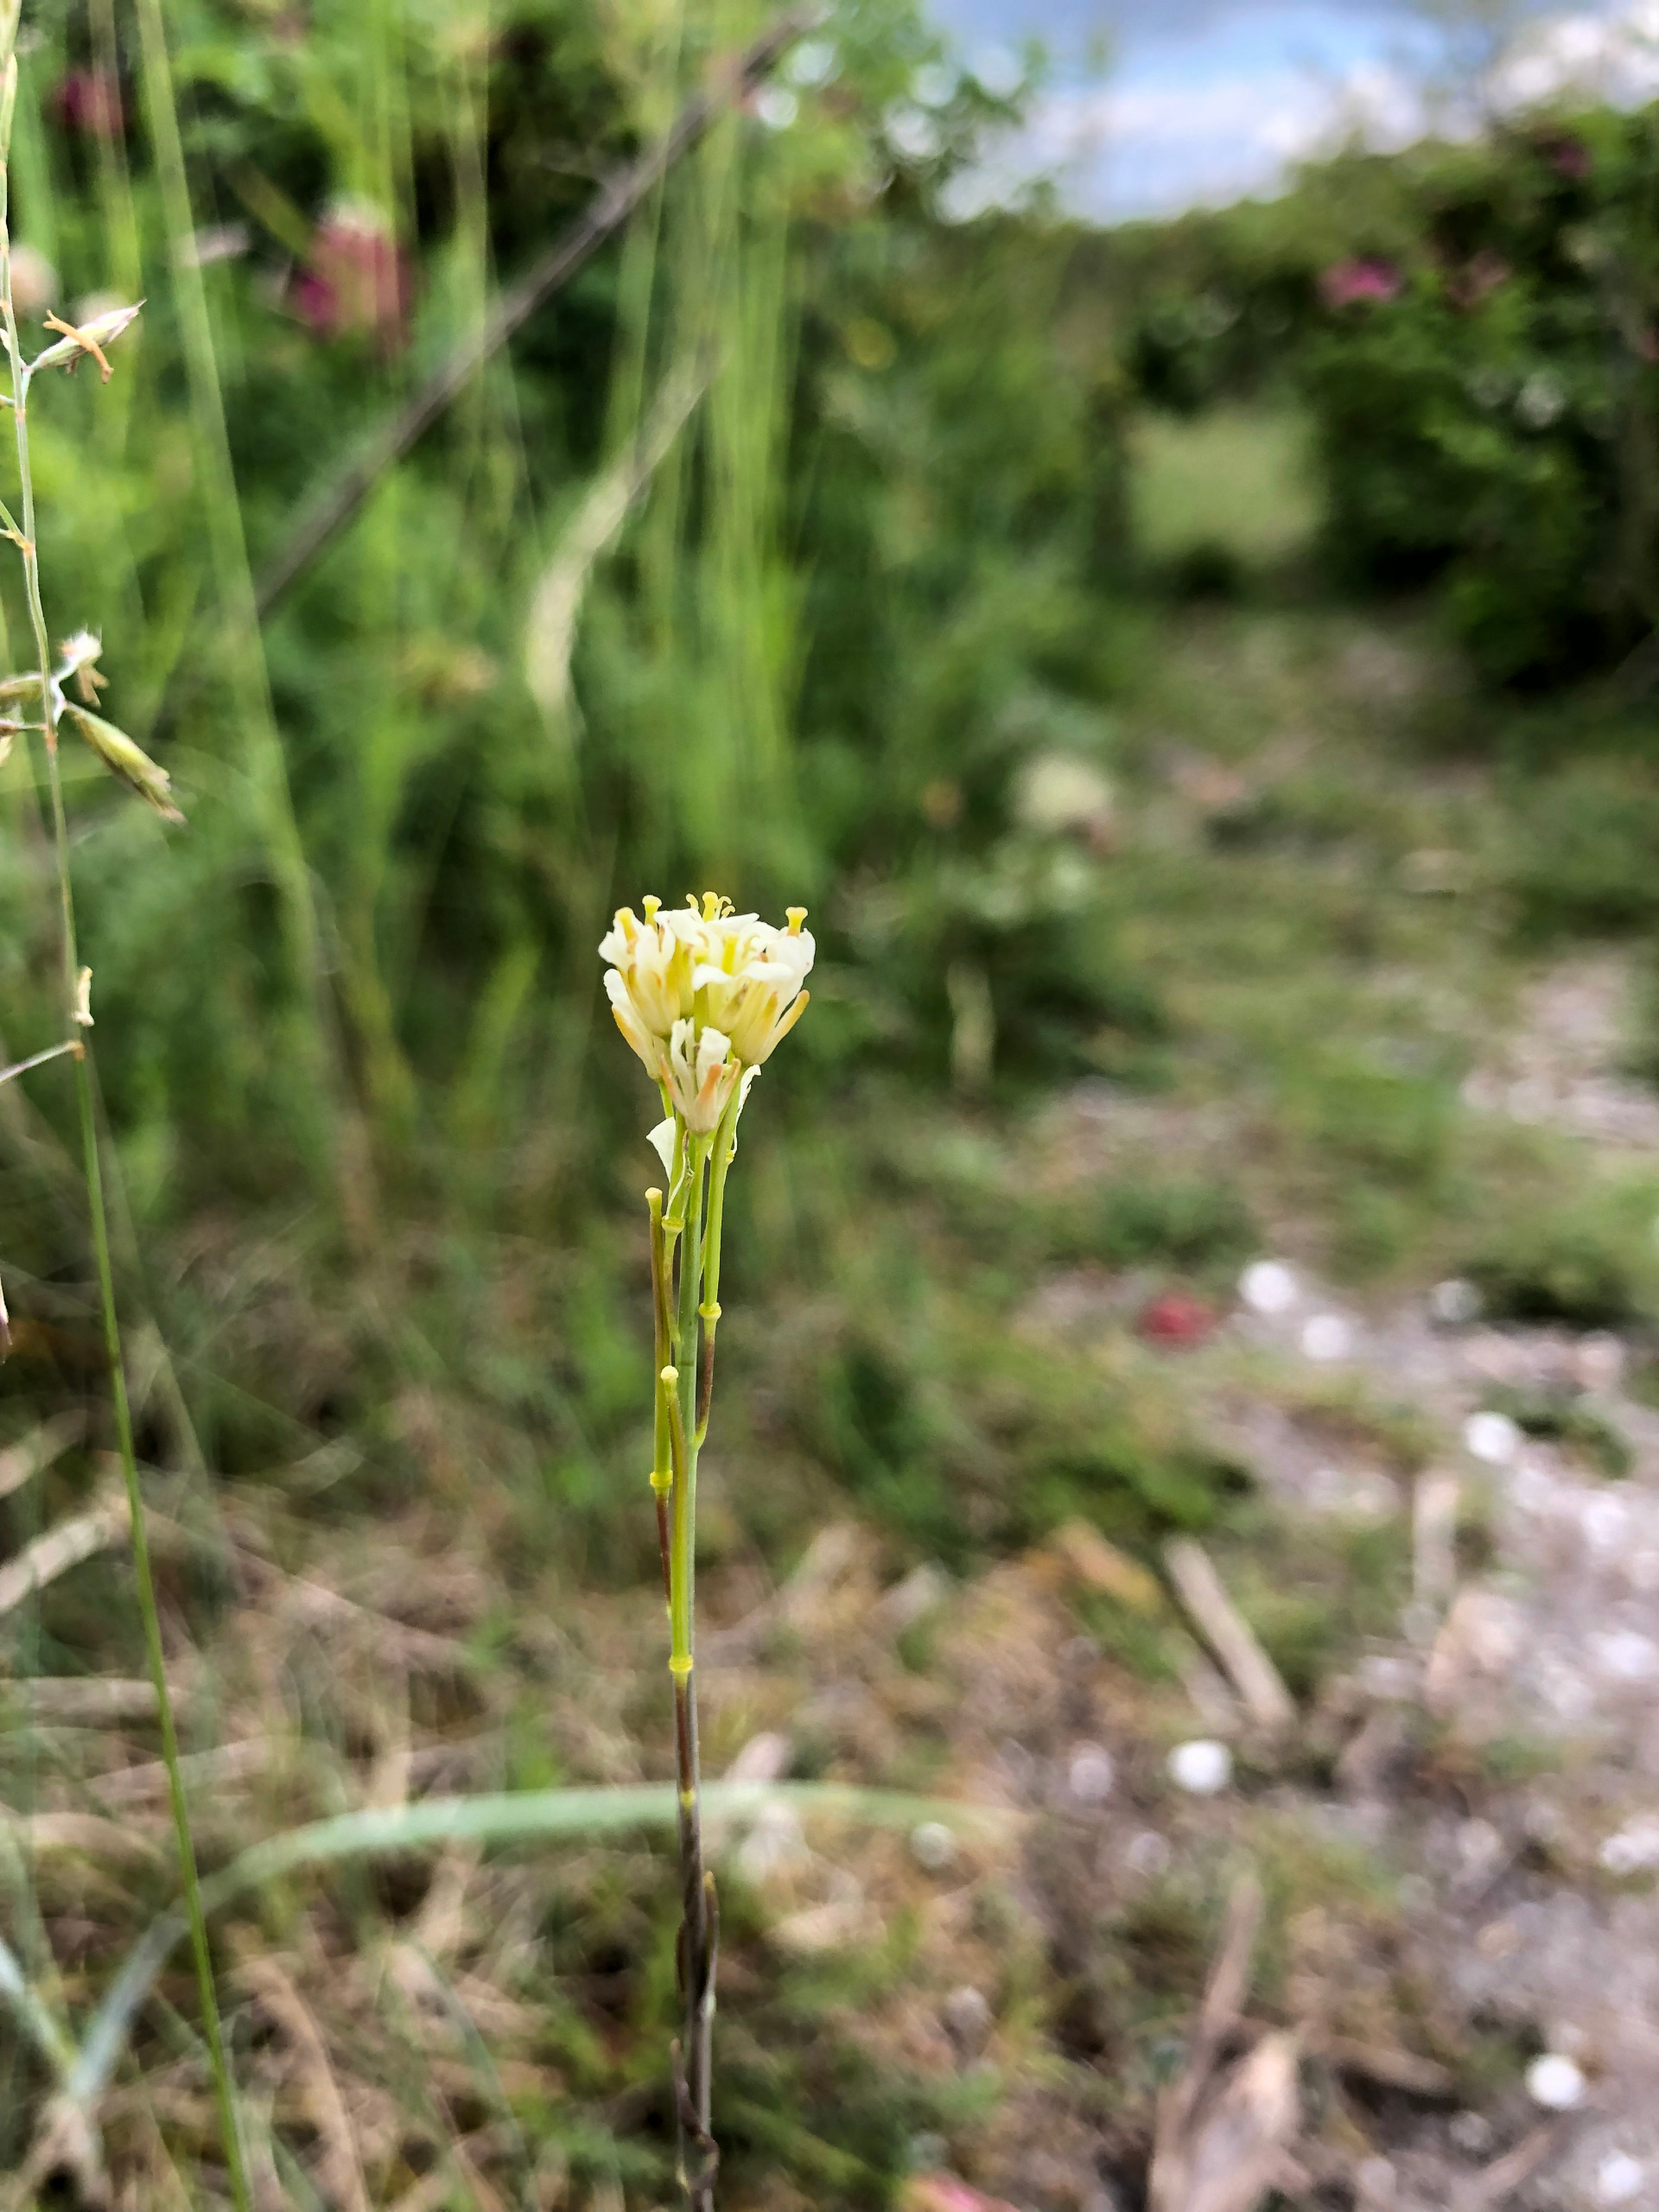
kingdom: Plantae
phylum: Tracheophyta
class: Magnoliopsida
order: Brassicales
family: Brassicaceae
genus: Turritis
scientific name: Turritis glabra
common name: Tårnurt
